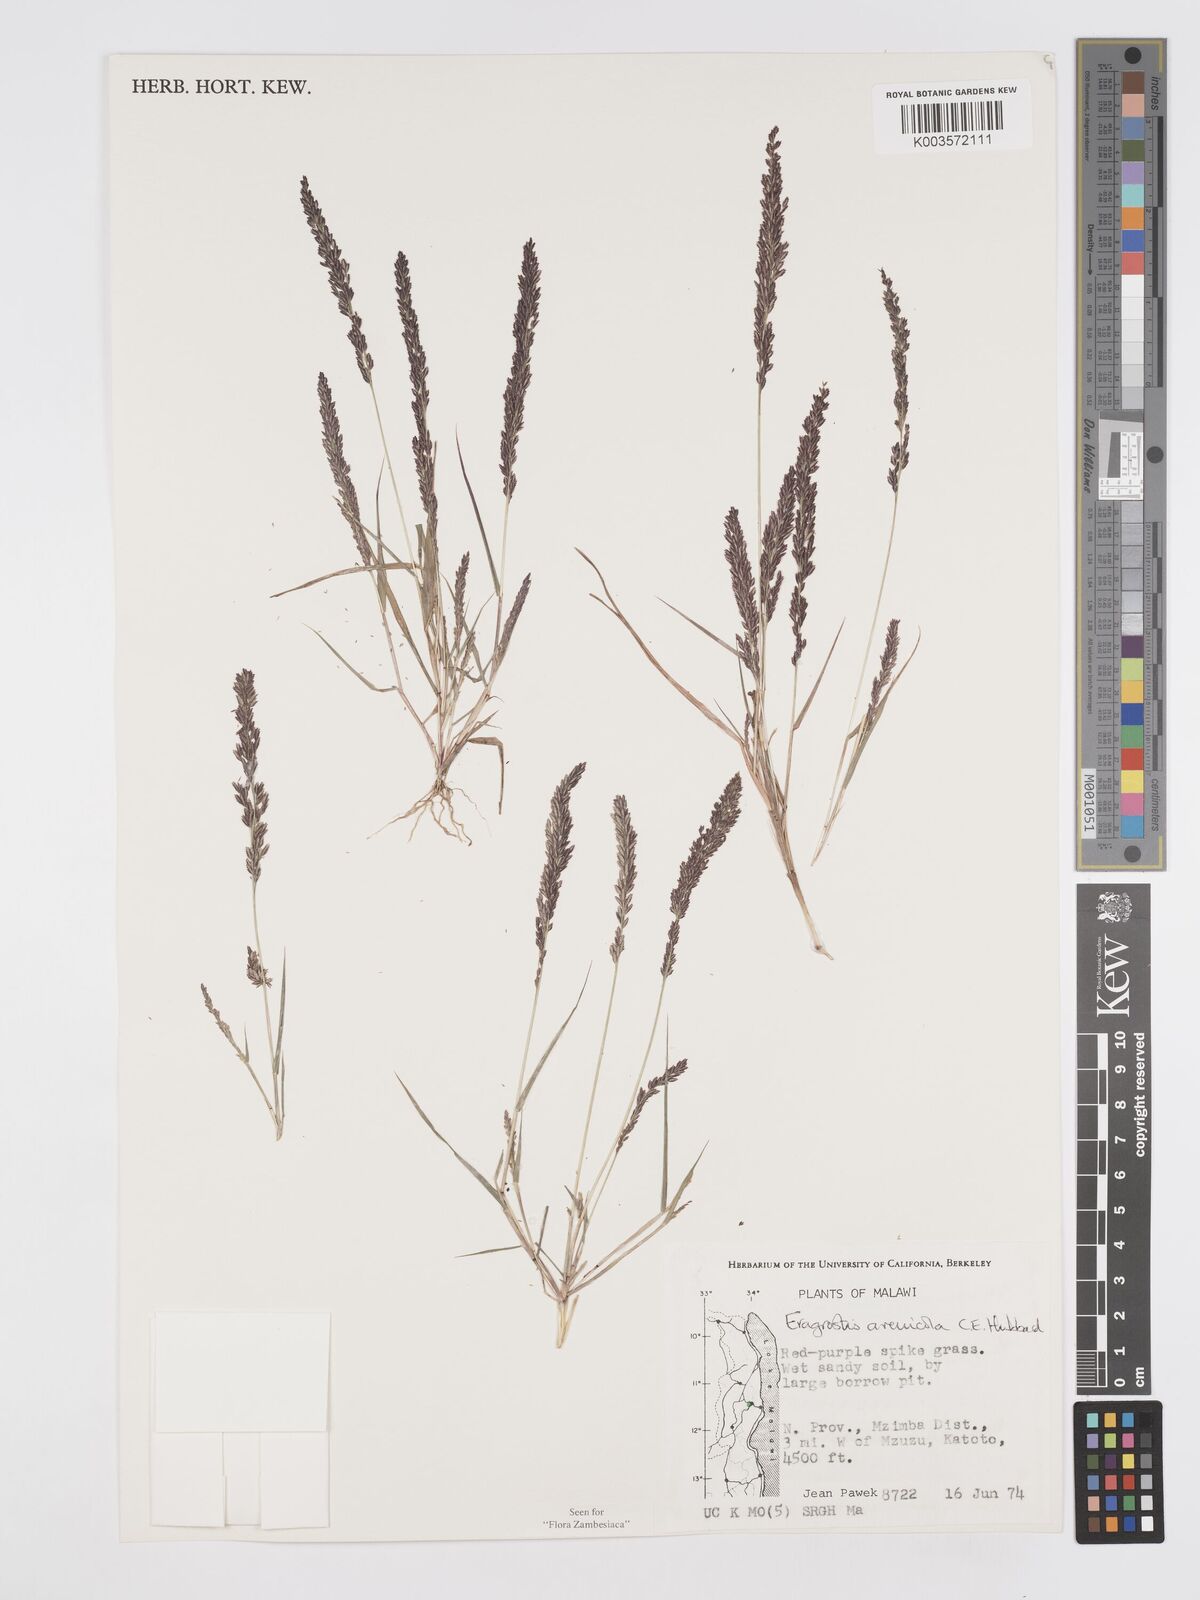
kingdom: Plantae
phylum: Tracheophyta
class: Liliopsida
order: Poales
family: Poaceae
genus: Eragrostis
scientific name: Eragrostis arenicola
